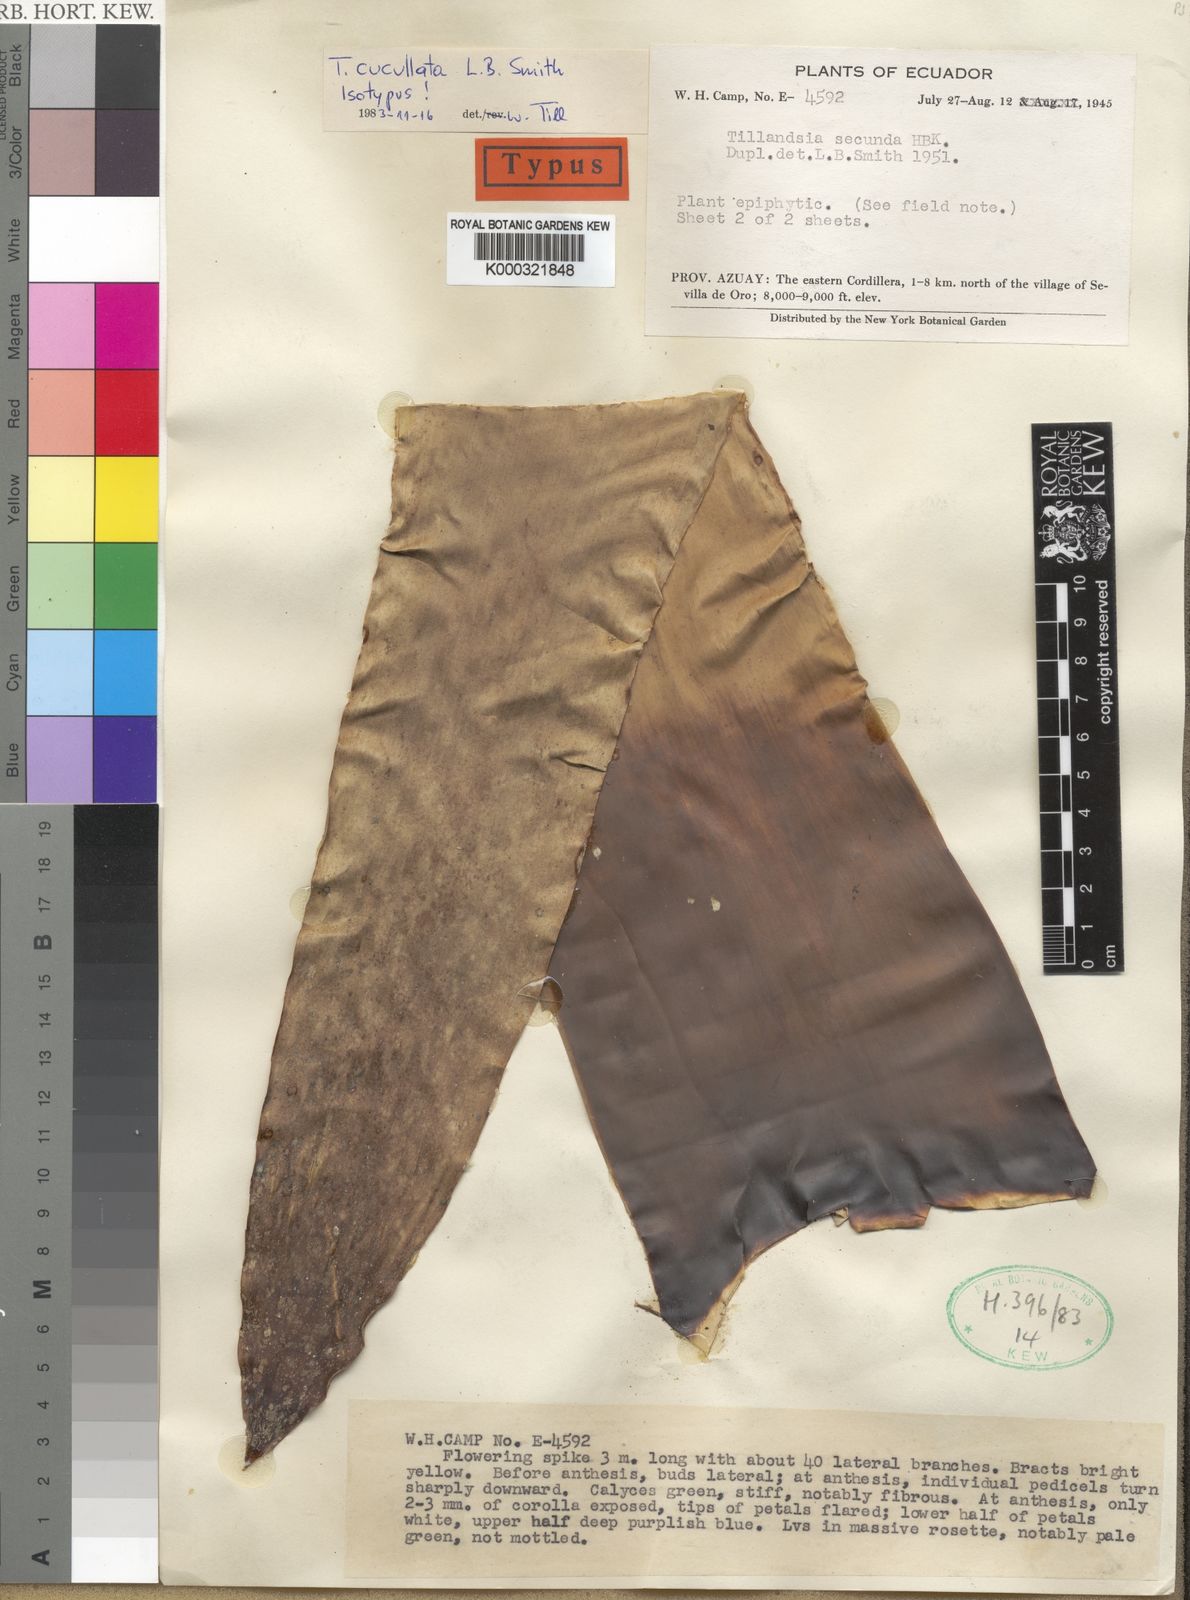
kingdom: Plantae
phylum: Tracheophyta
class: Liliopsida
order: Poales
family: Bromeliaceae
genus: Tillandsia
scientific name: Tillandsia cucullata
